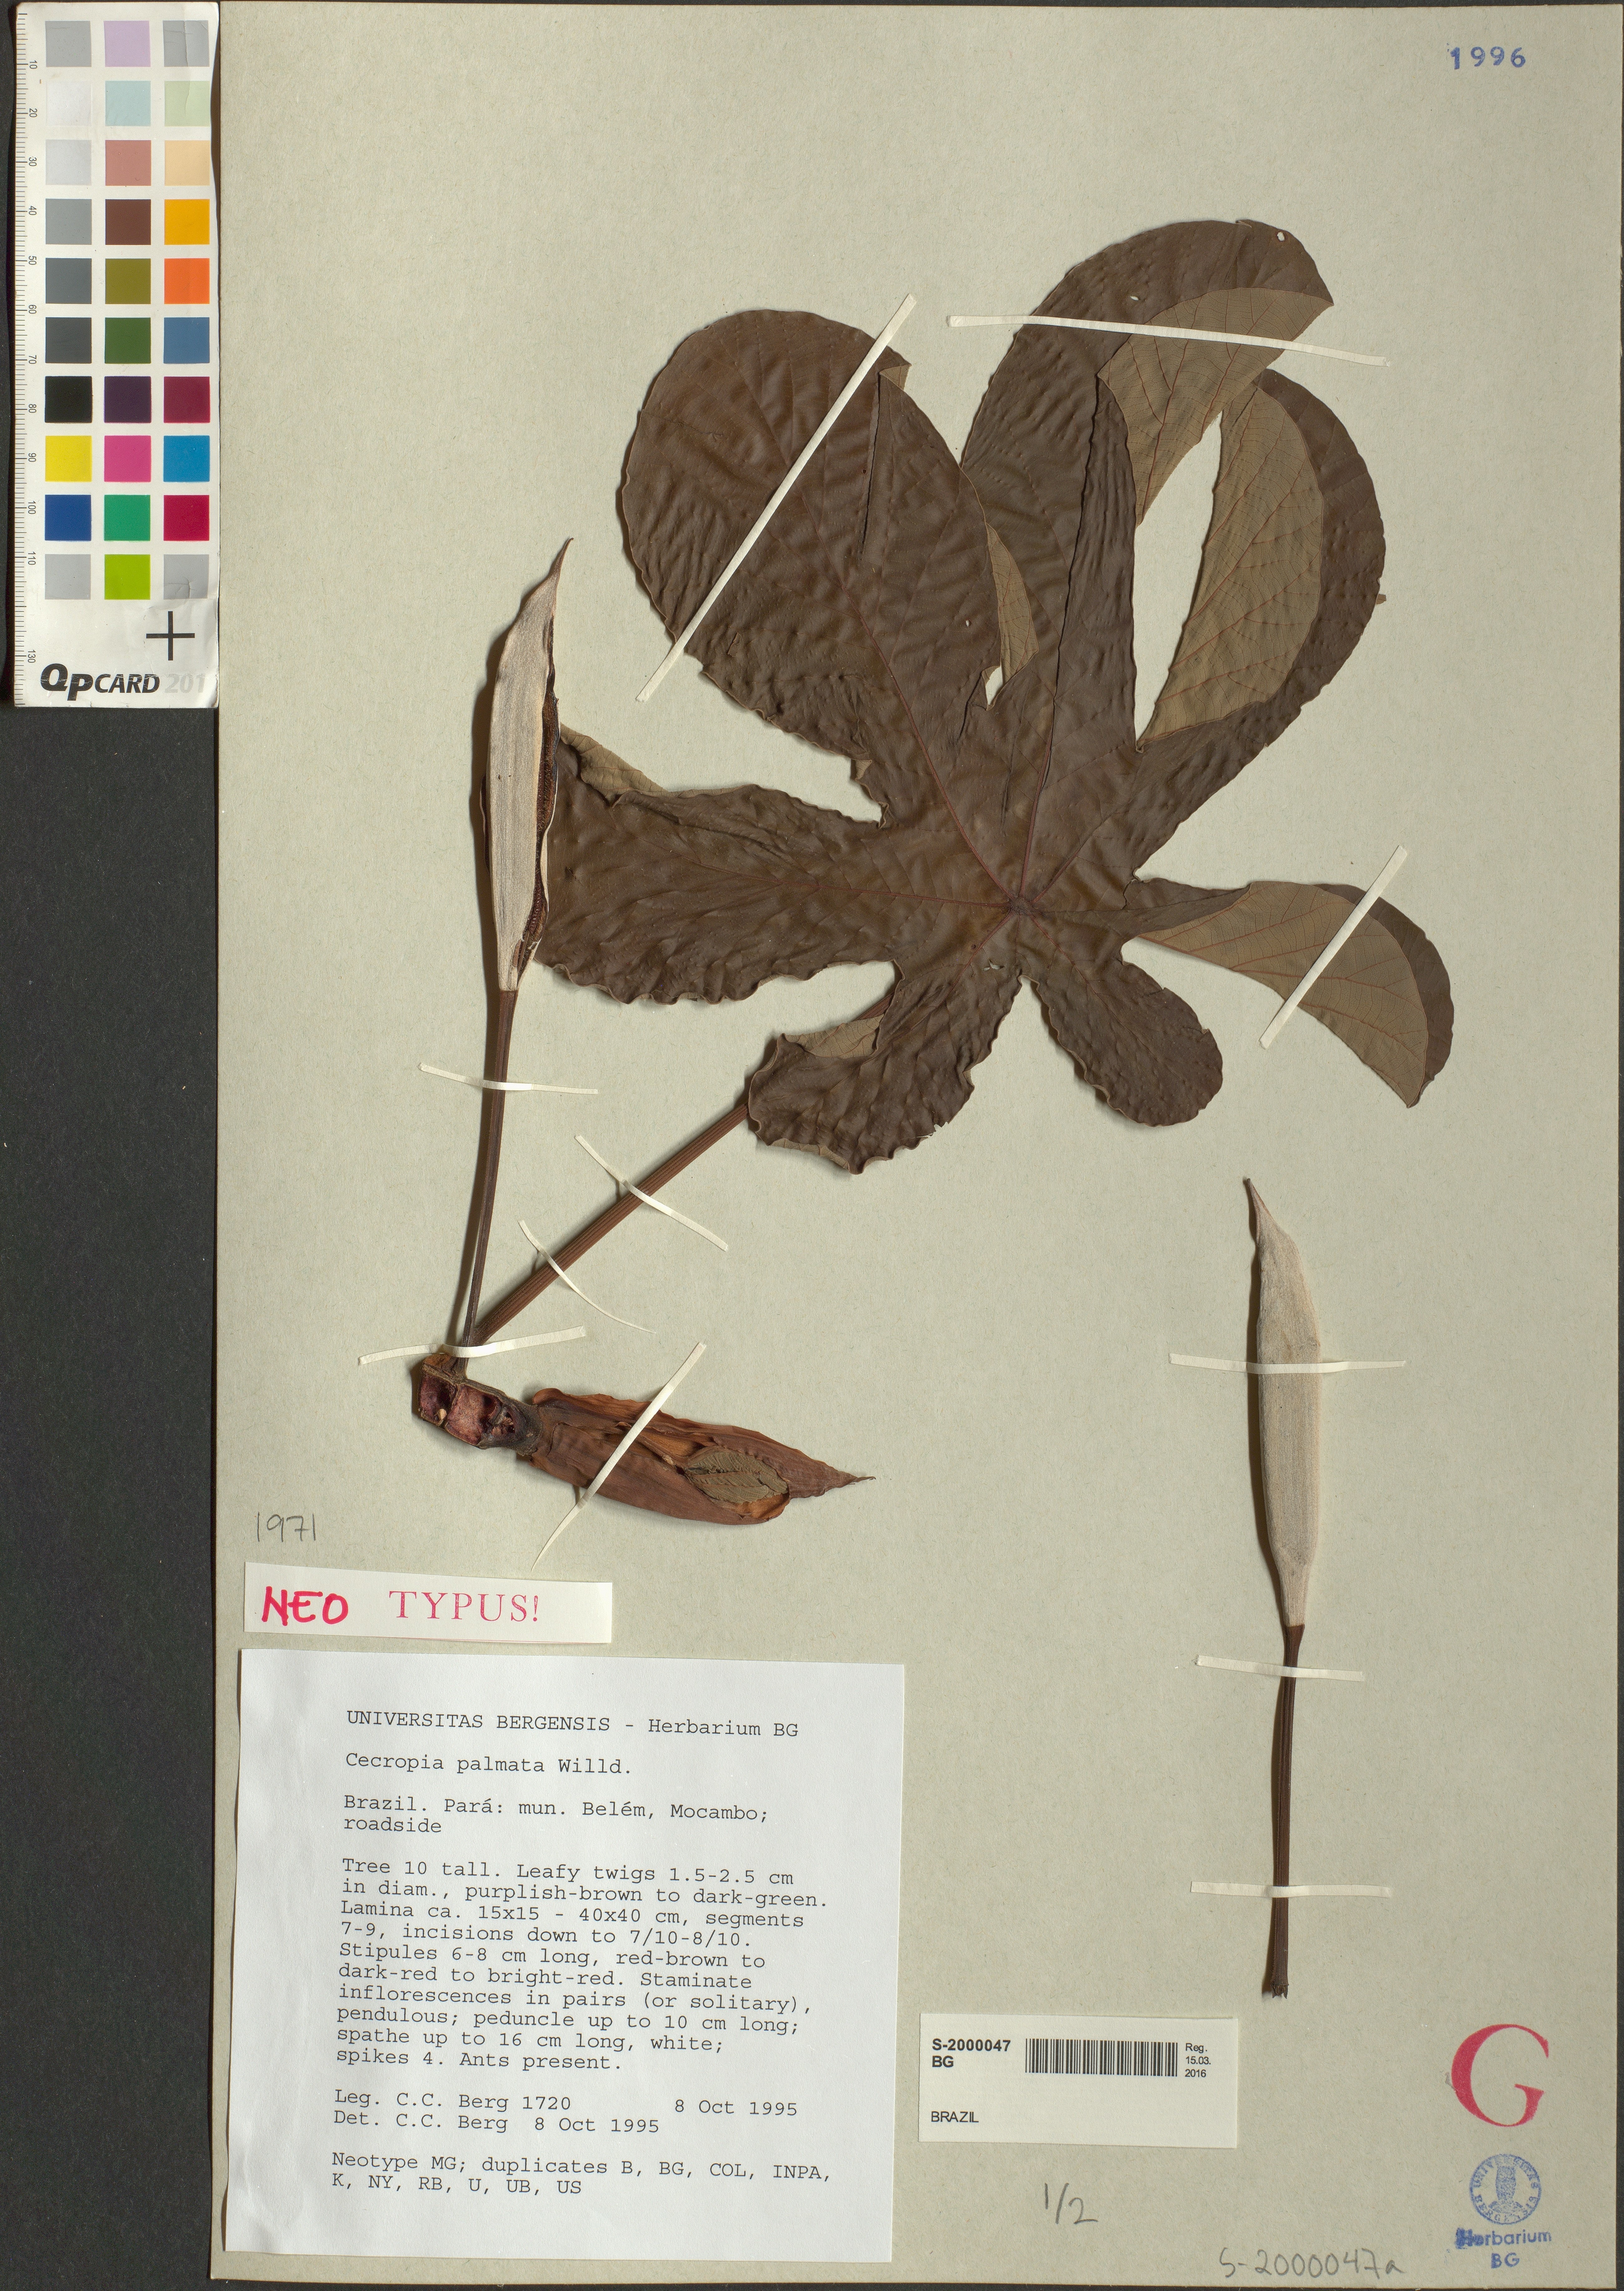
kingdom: Plantae
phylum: Tracheophyta
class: Magnoliopsida
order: Rosales
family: Urticaceae
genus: Cecropia
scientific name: Cecropia palmata
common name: Trumpet tree
